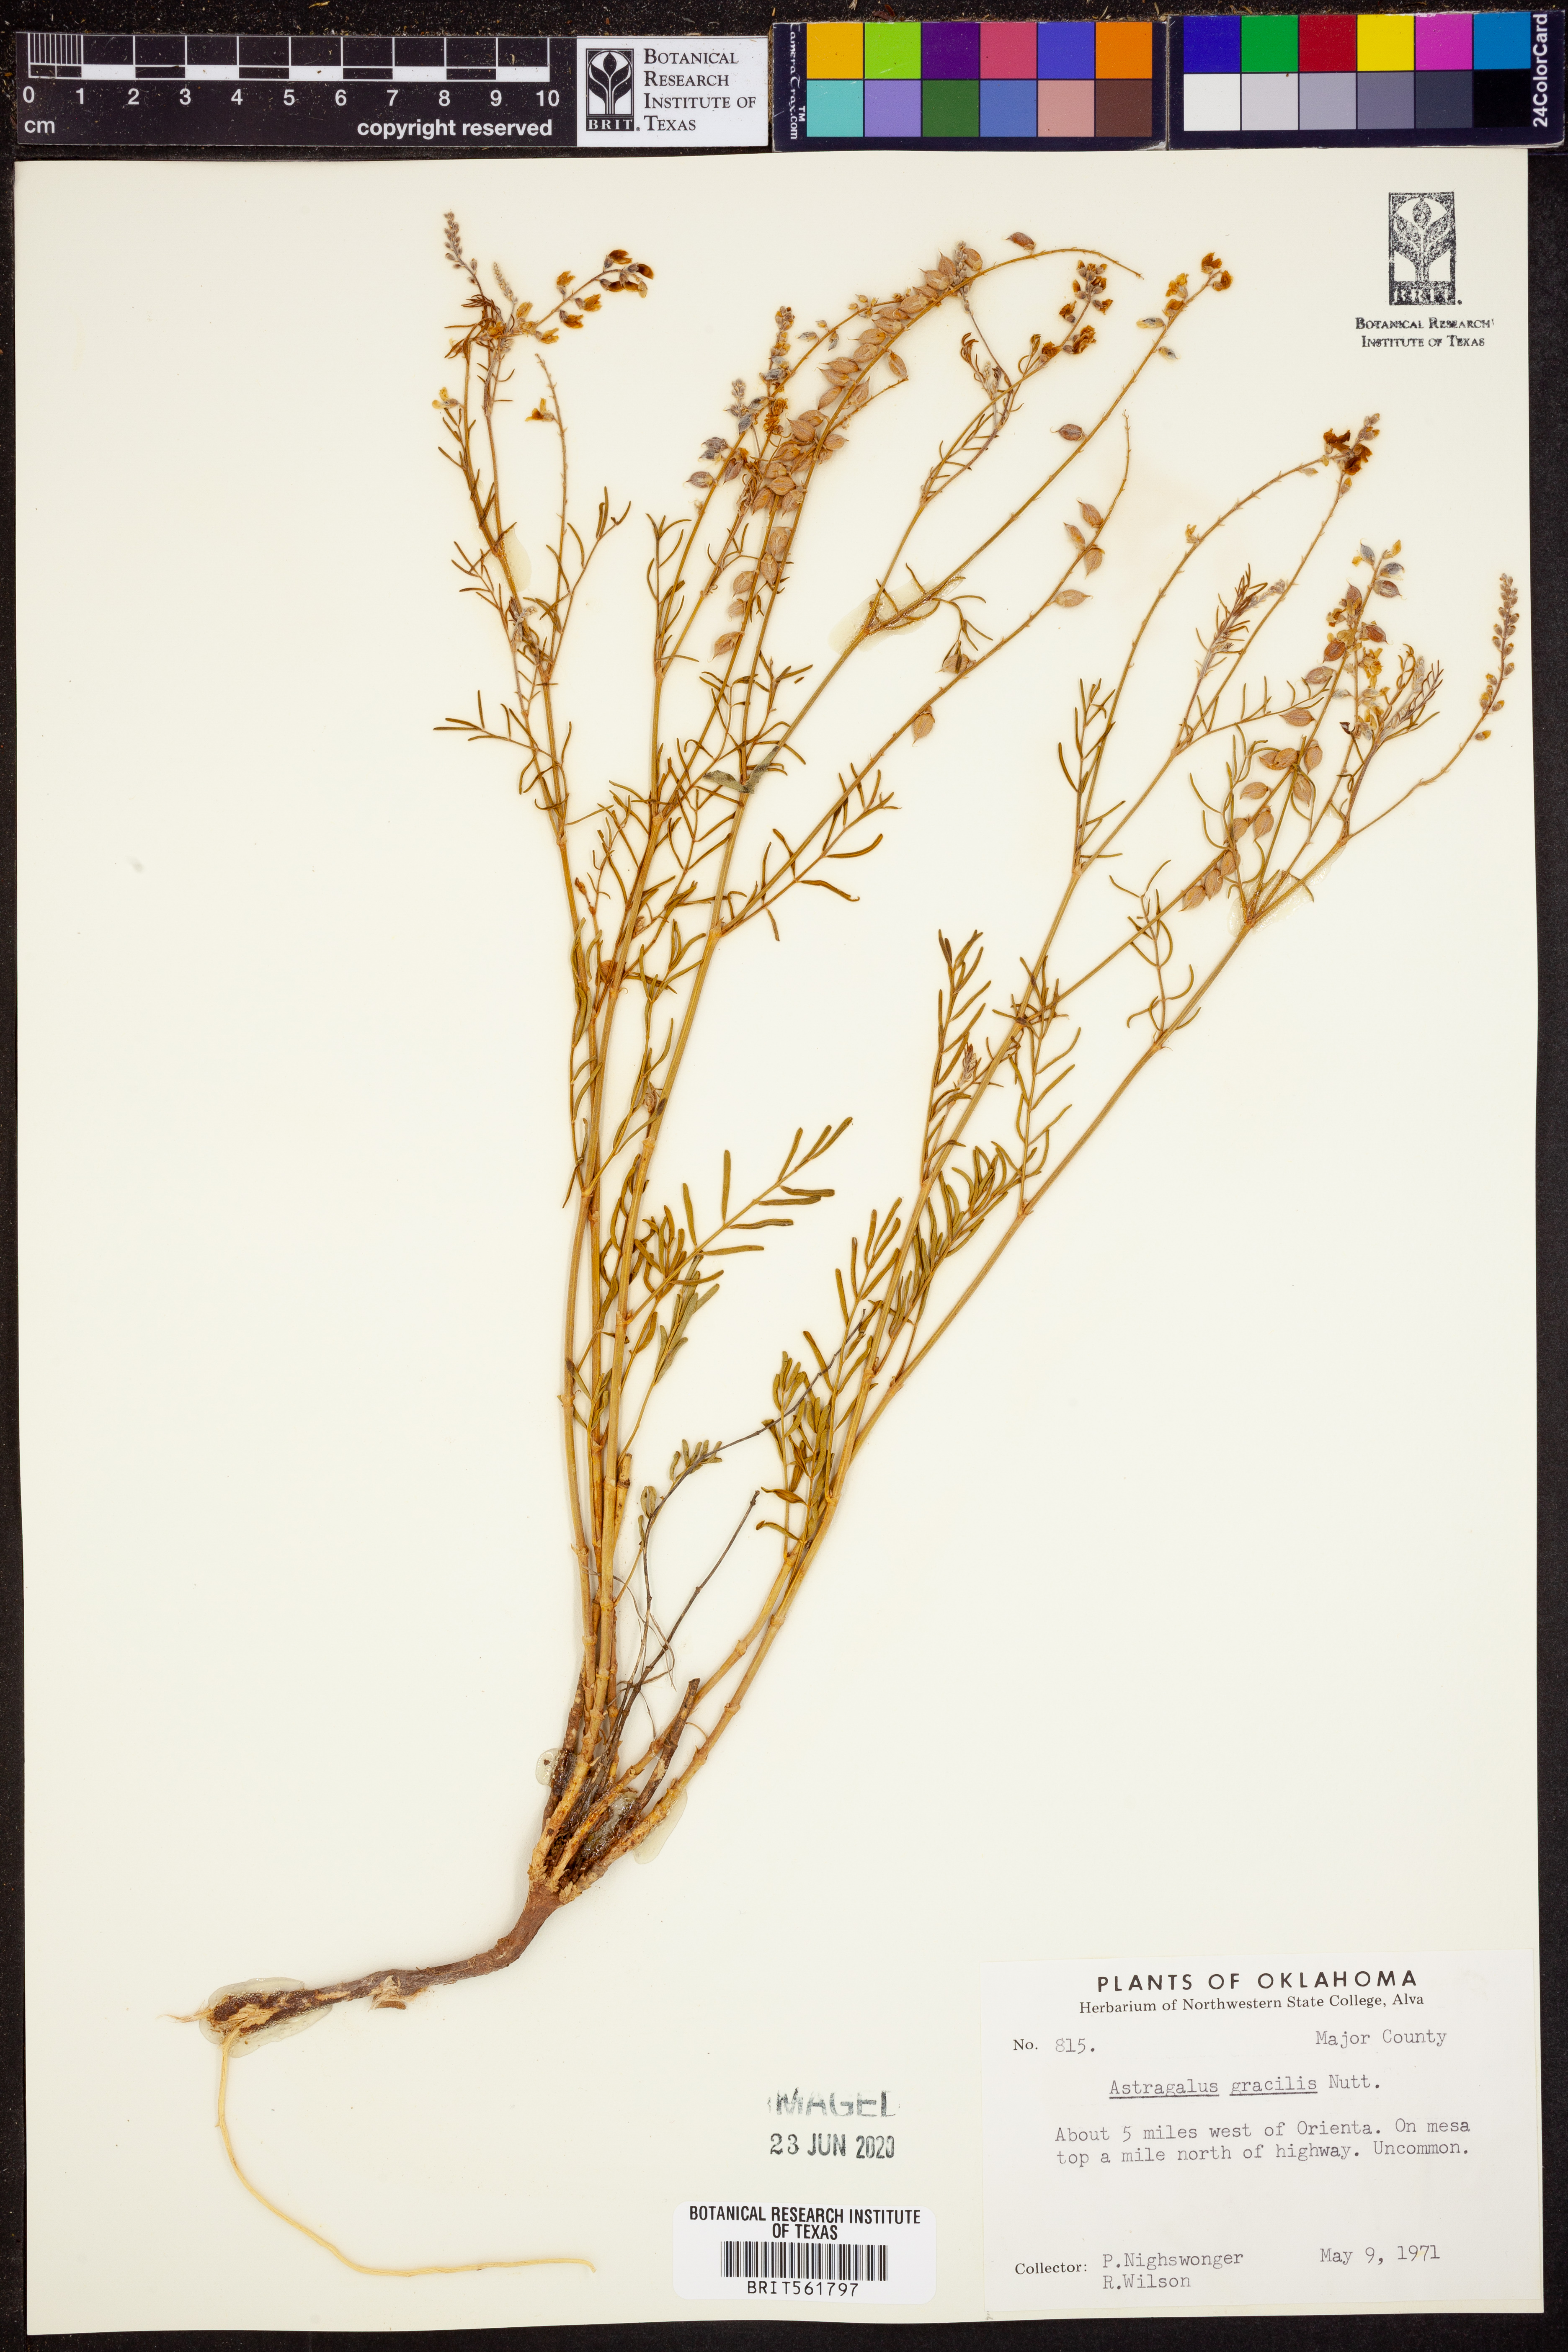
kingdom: Plantae
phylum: Tracheophyta
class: Magnoliopsida
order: Fabales
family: Fabaceae
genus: Astragalus
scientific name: Astragalus gracilis
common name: Slender milk-vetch
